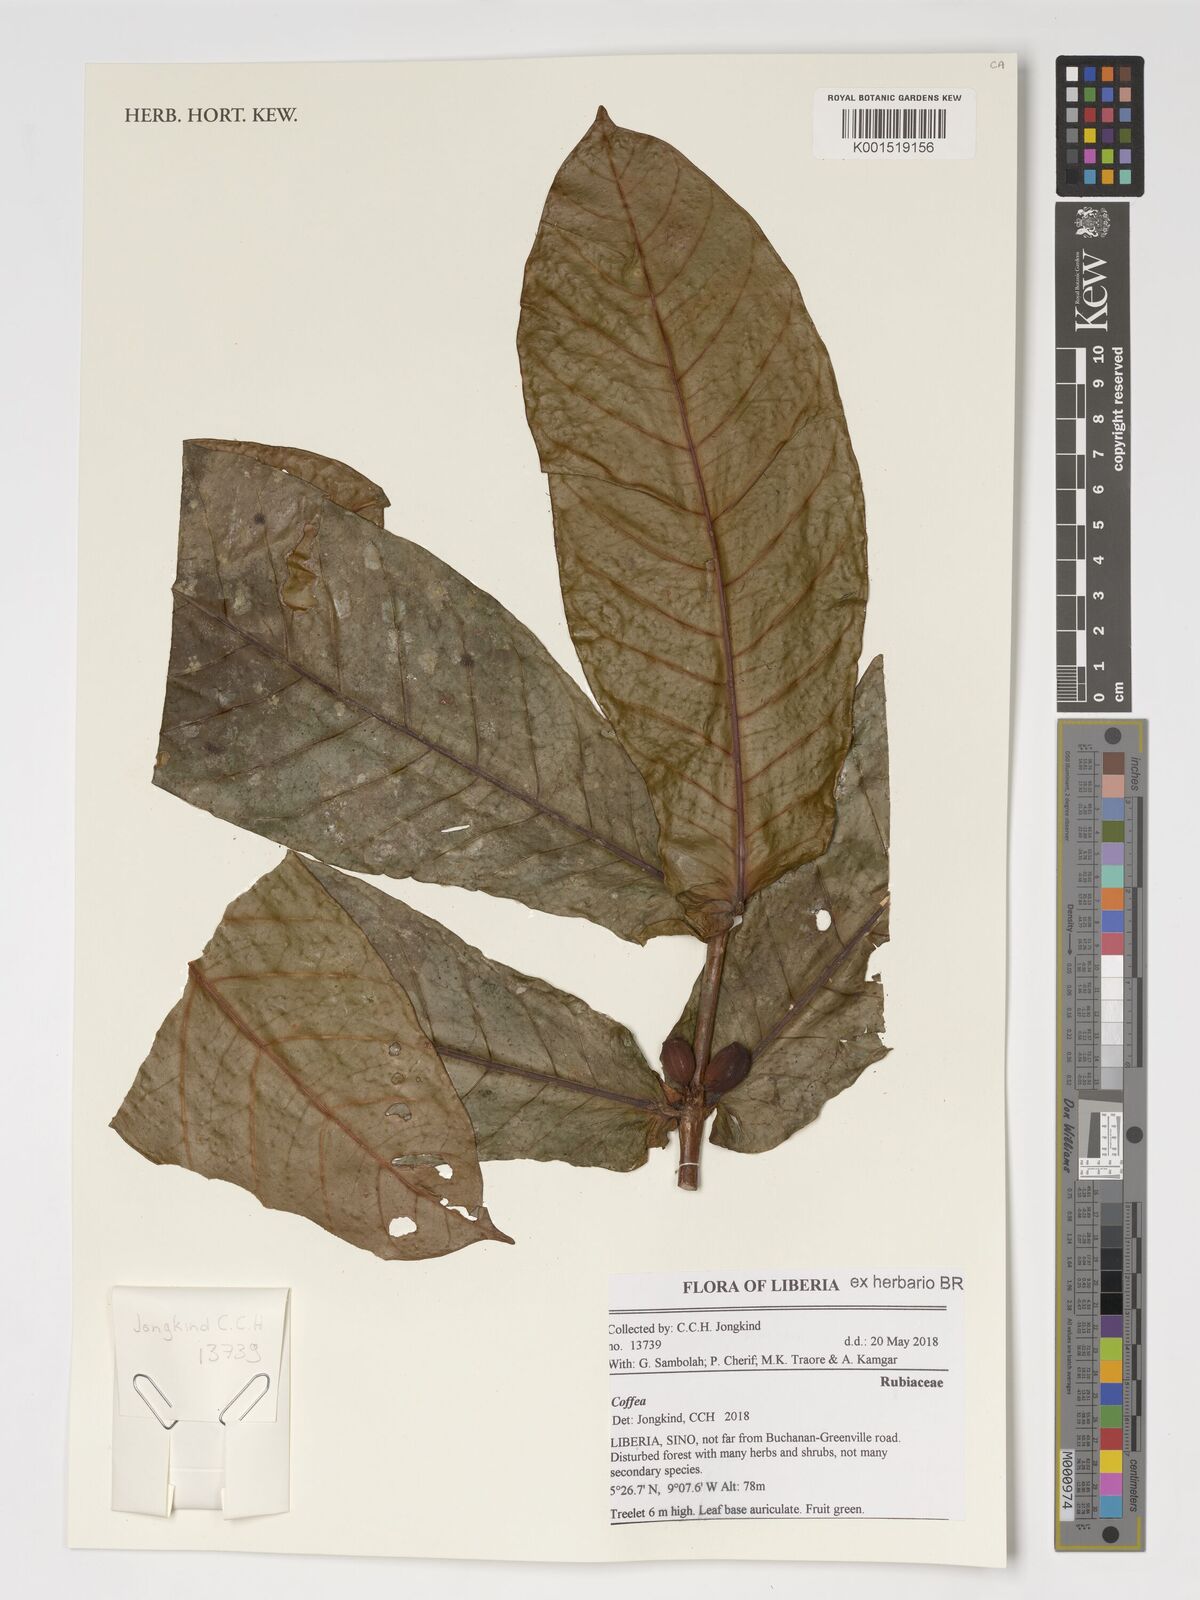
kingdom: Plantae
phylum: Tracheophyta
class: Magnoliopsida
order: Gentianales
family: Rubiaceae
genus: Coffea
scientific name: Coffea
